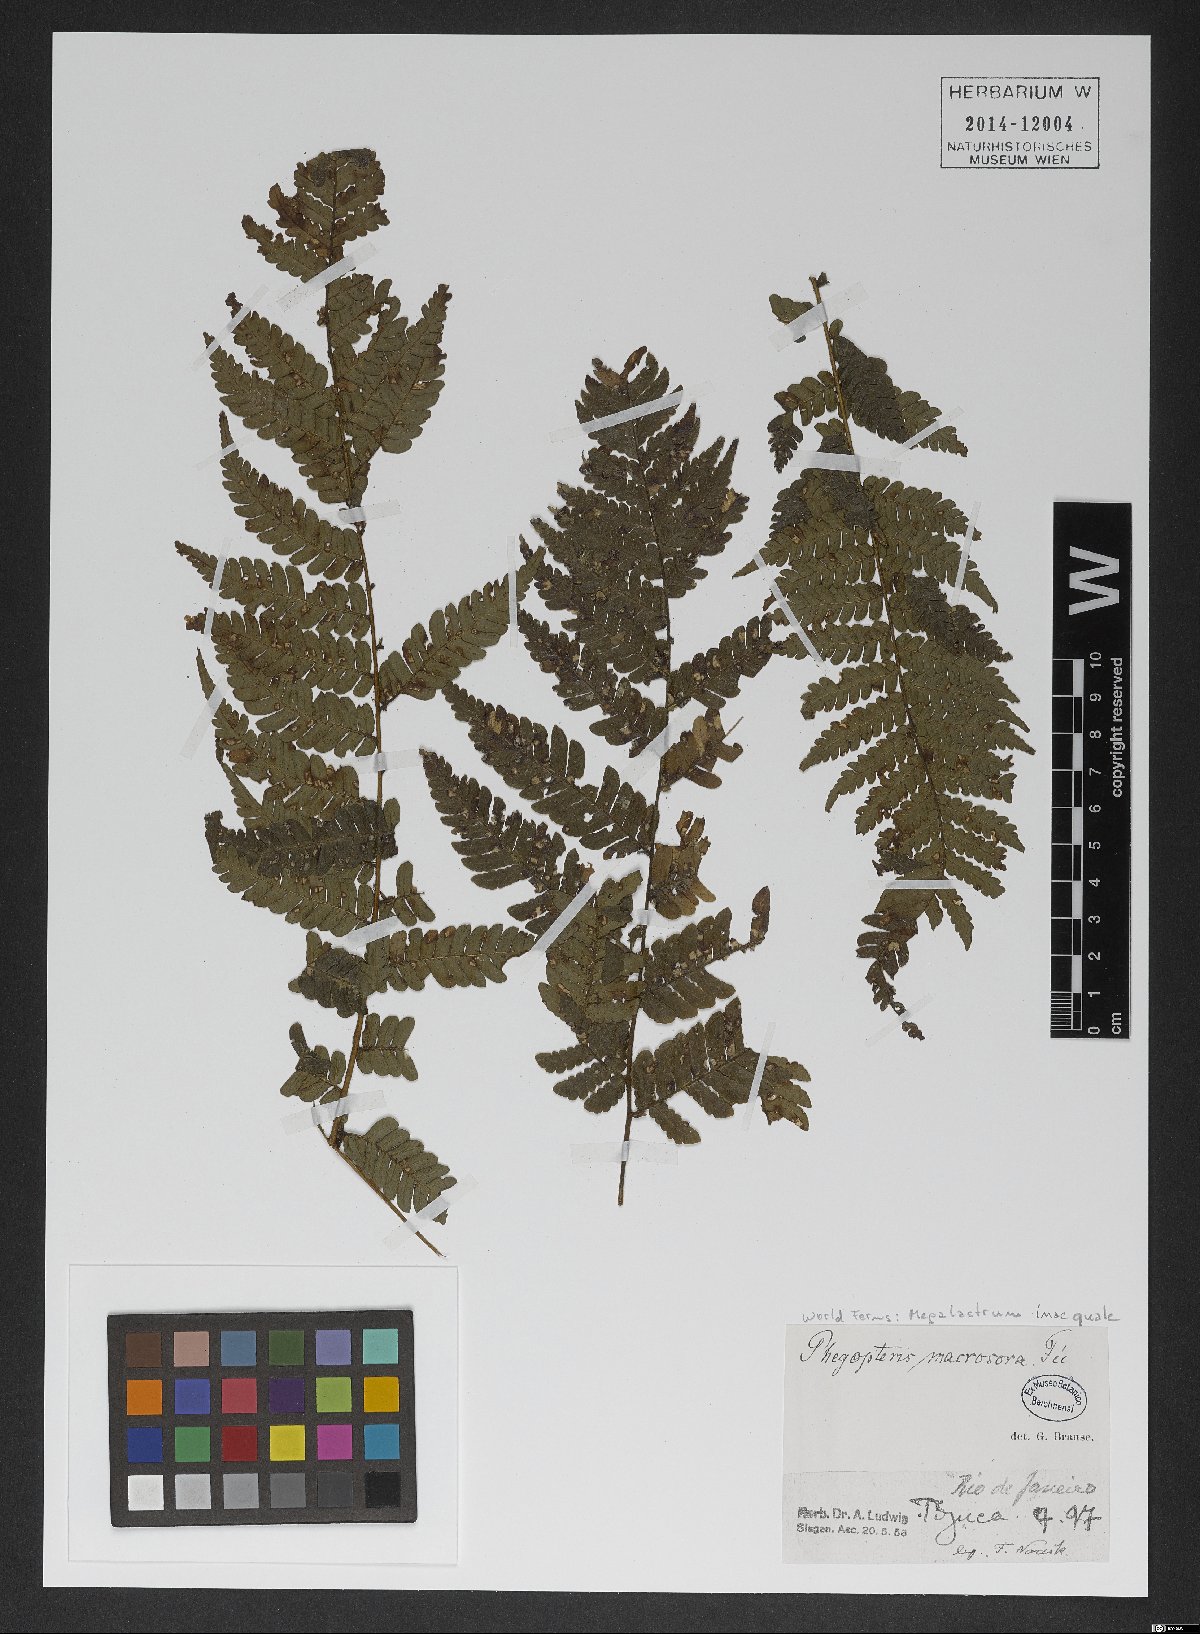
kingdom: Plantae
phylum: Tracheophyta
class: Polypodiopsida
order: Polypodiales
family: Dryopteridaceae
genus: Megalastrum
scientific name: Megalastrum inaequale
